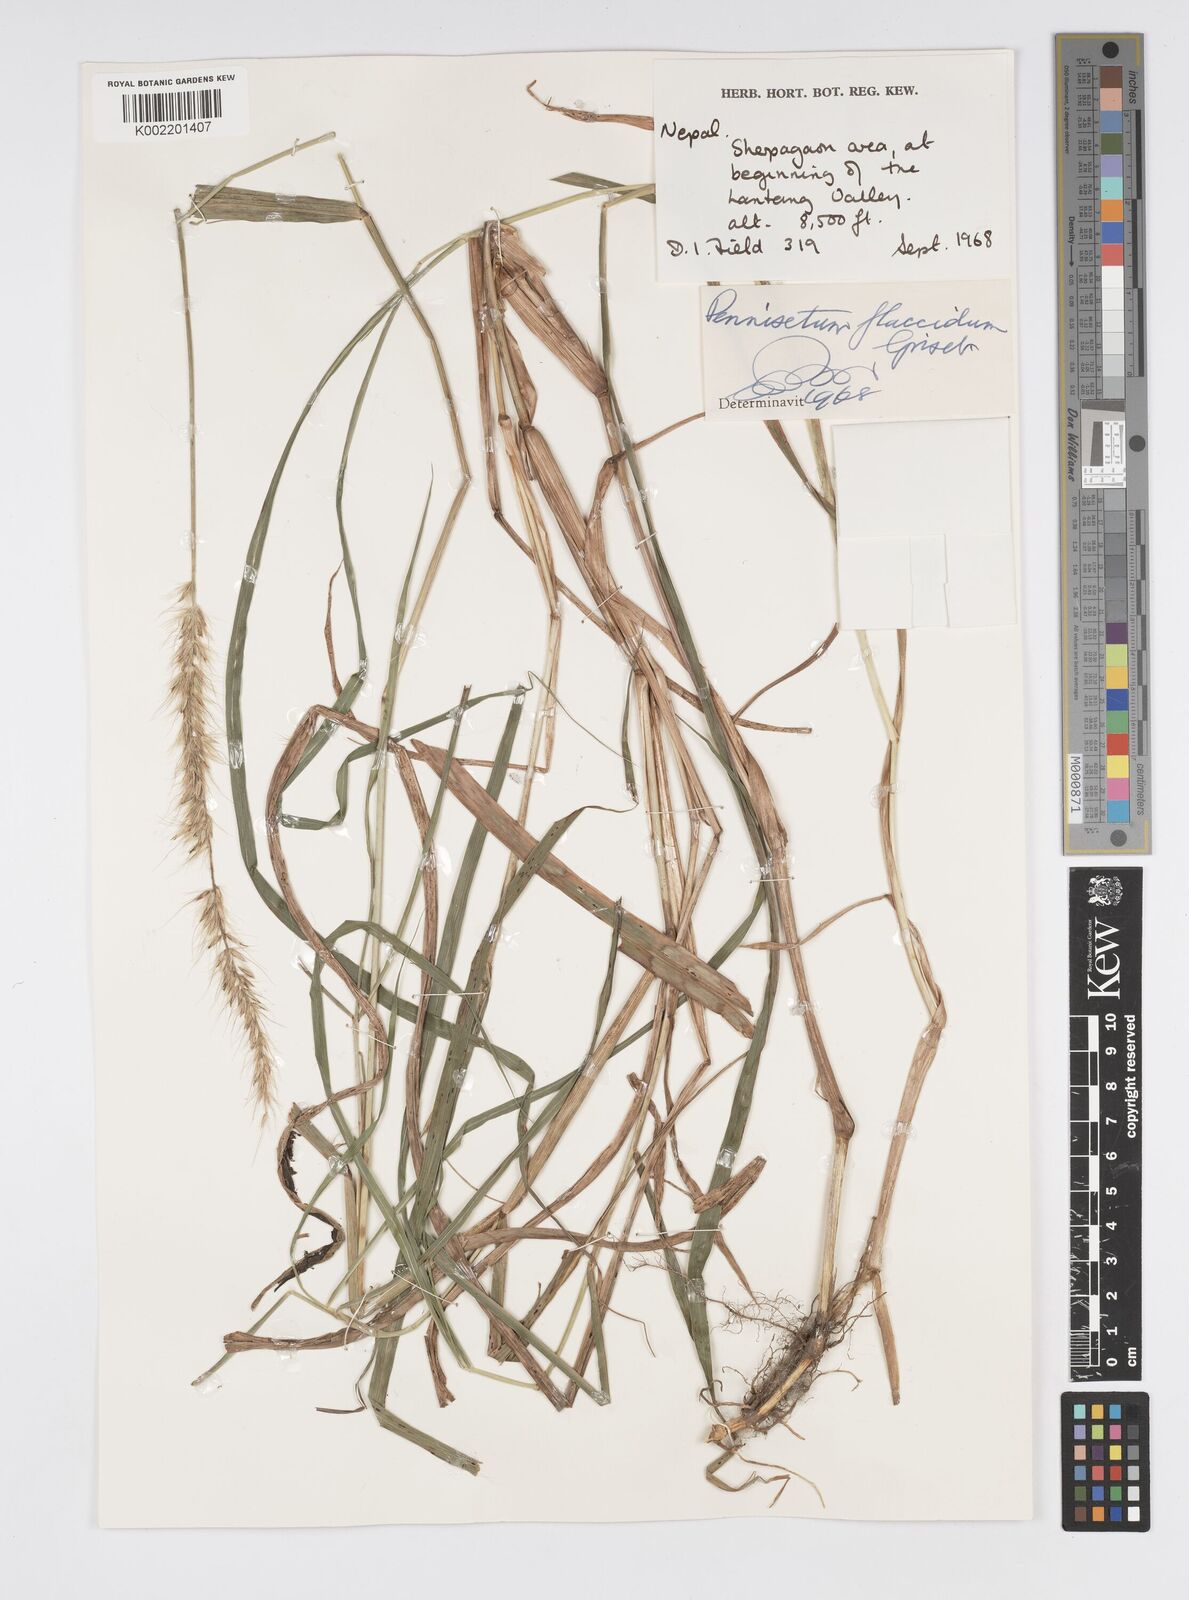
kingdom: Plantae
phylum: Tracheophyta
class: Liliopsida
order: Poales
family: Poaceae
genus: Cenchrus
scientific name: Cenchrus flaccidus
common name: Flaccid grass
